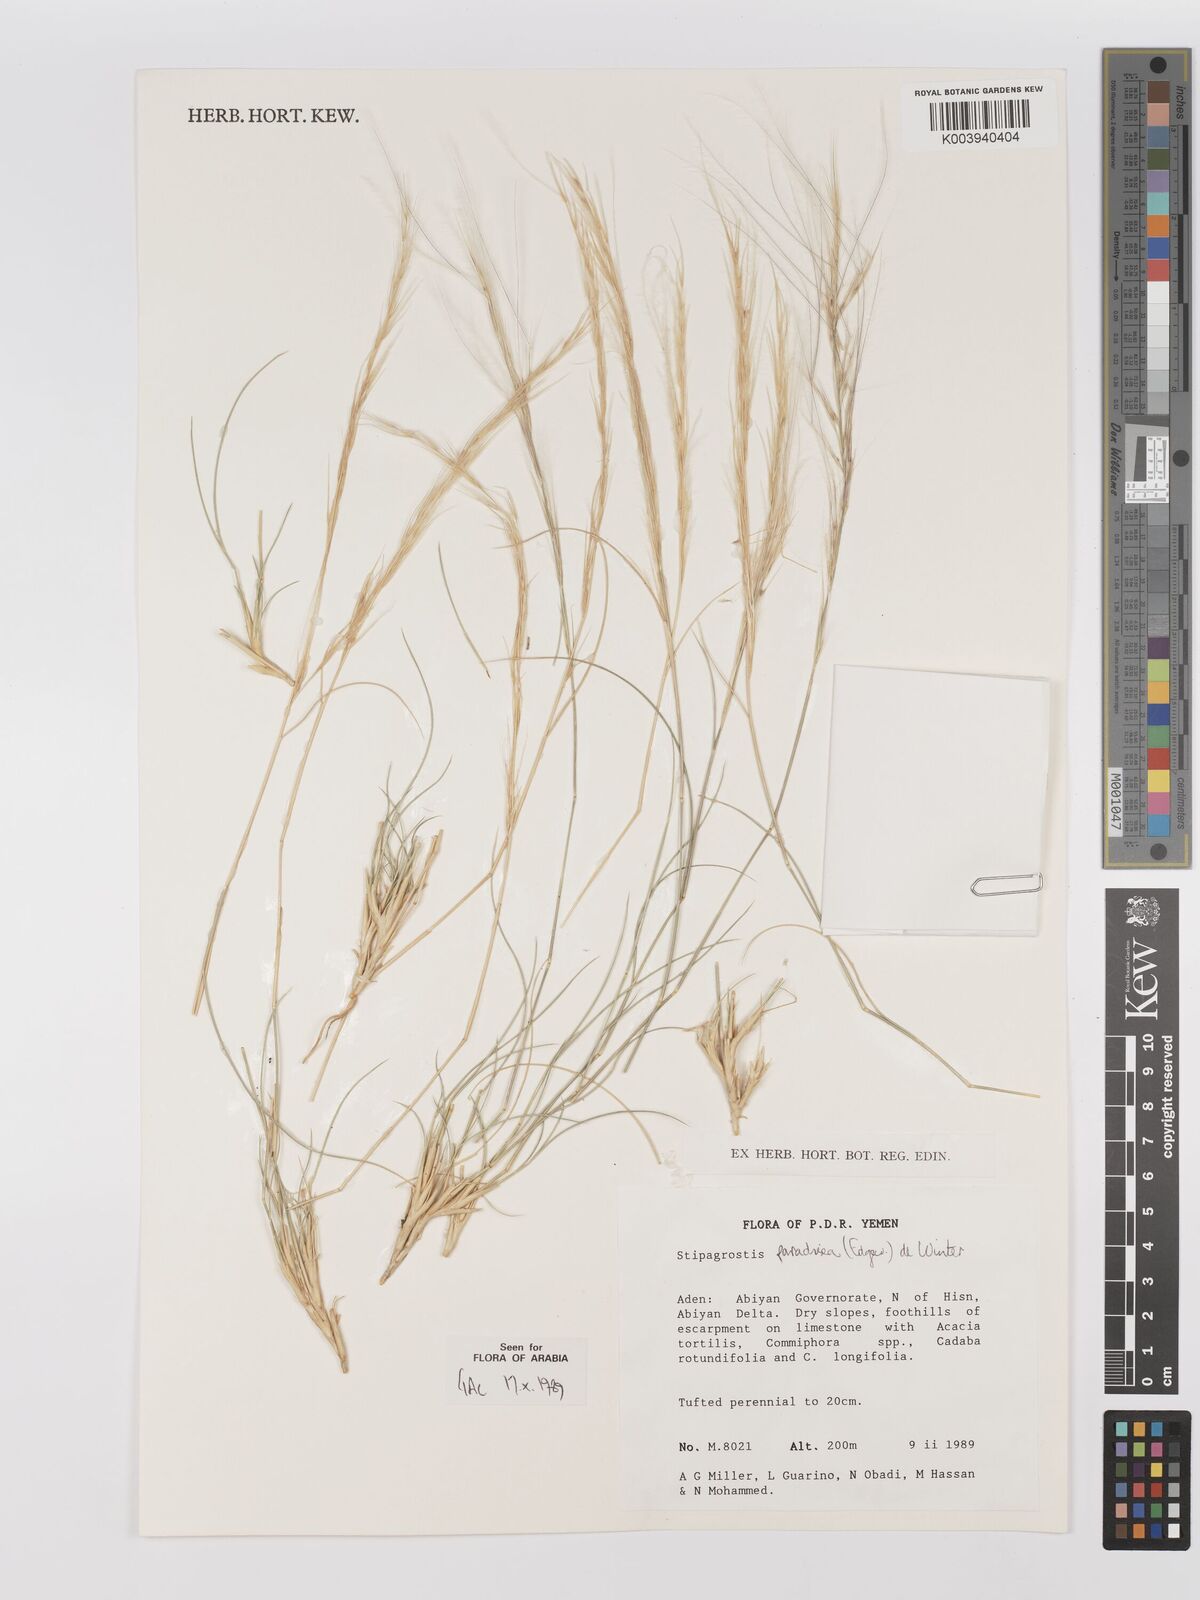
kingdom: Plantae
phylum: Tracheophyta
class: Liliopsida
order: Poales
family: Poaceae
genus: Stipagrostis
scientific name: Stipagrostis paradisea
